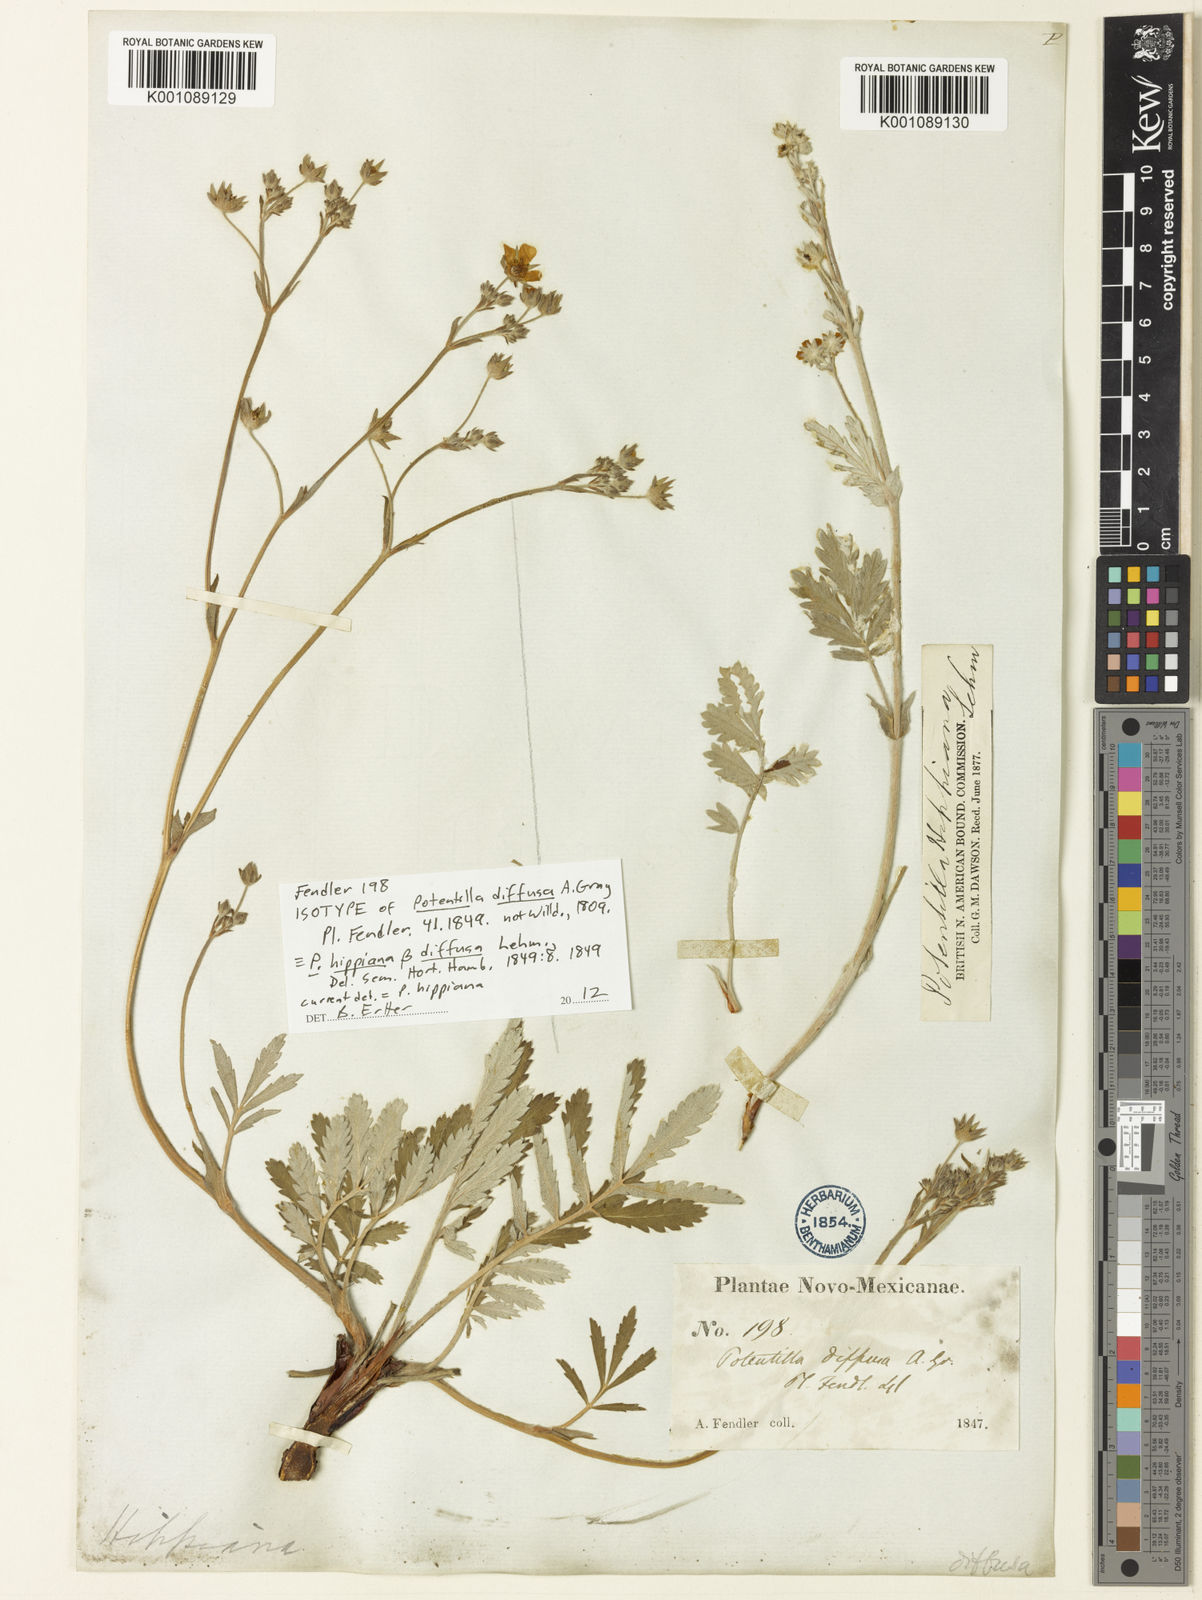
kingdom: Plantae
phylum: Tracheophyta
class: Magnoliopsida
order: Rosales
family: Rosaceae
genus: Potentilla
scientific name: Potentilla hippiana
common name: Woolly cinquefoil
